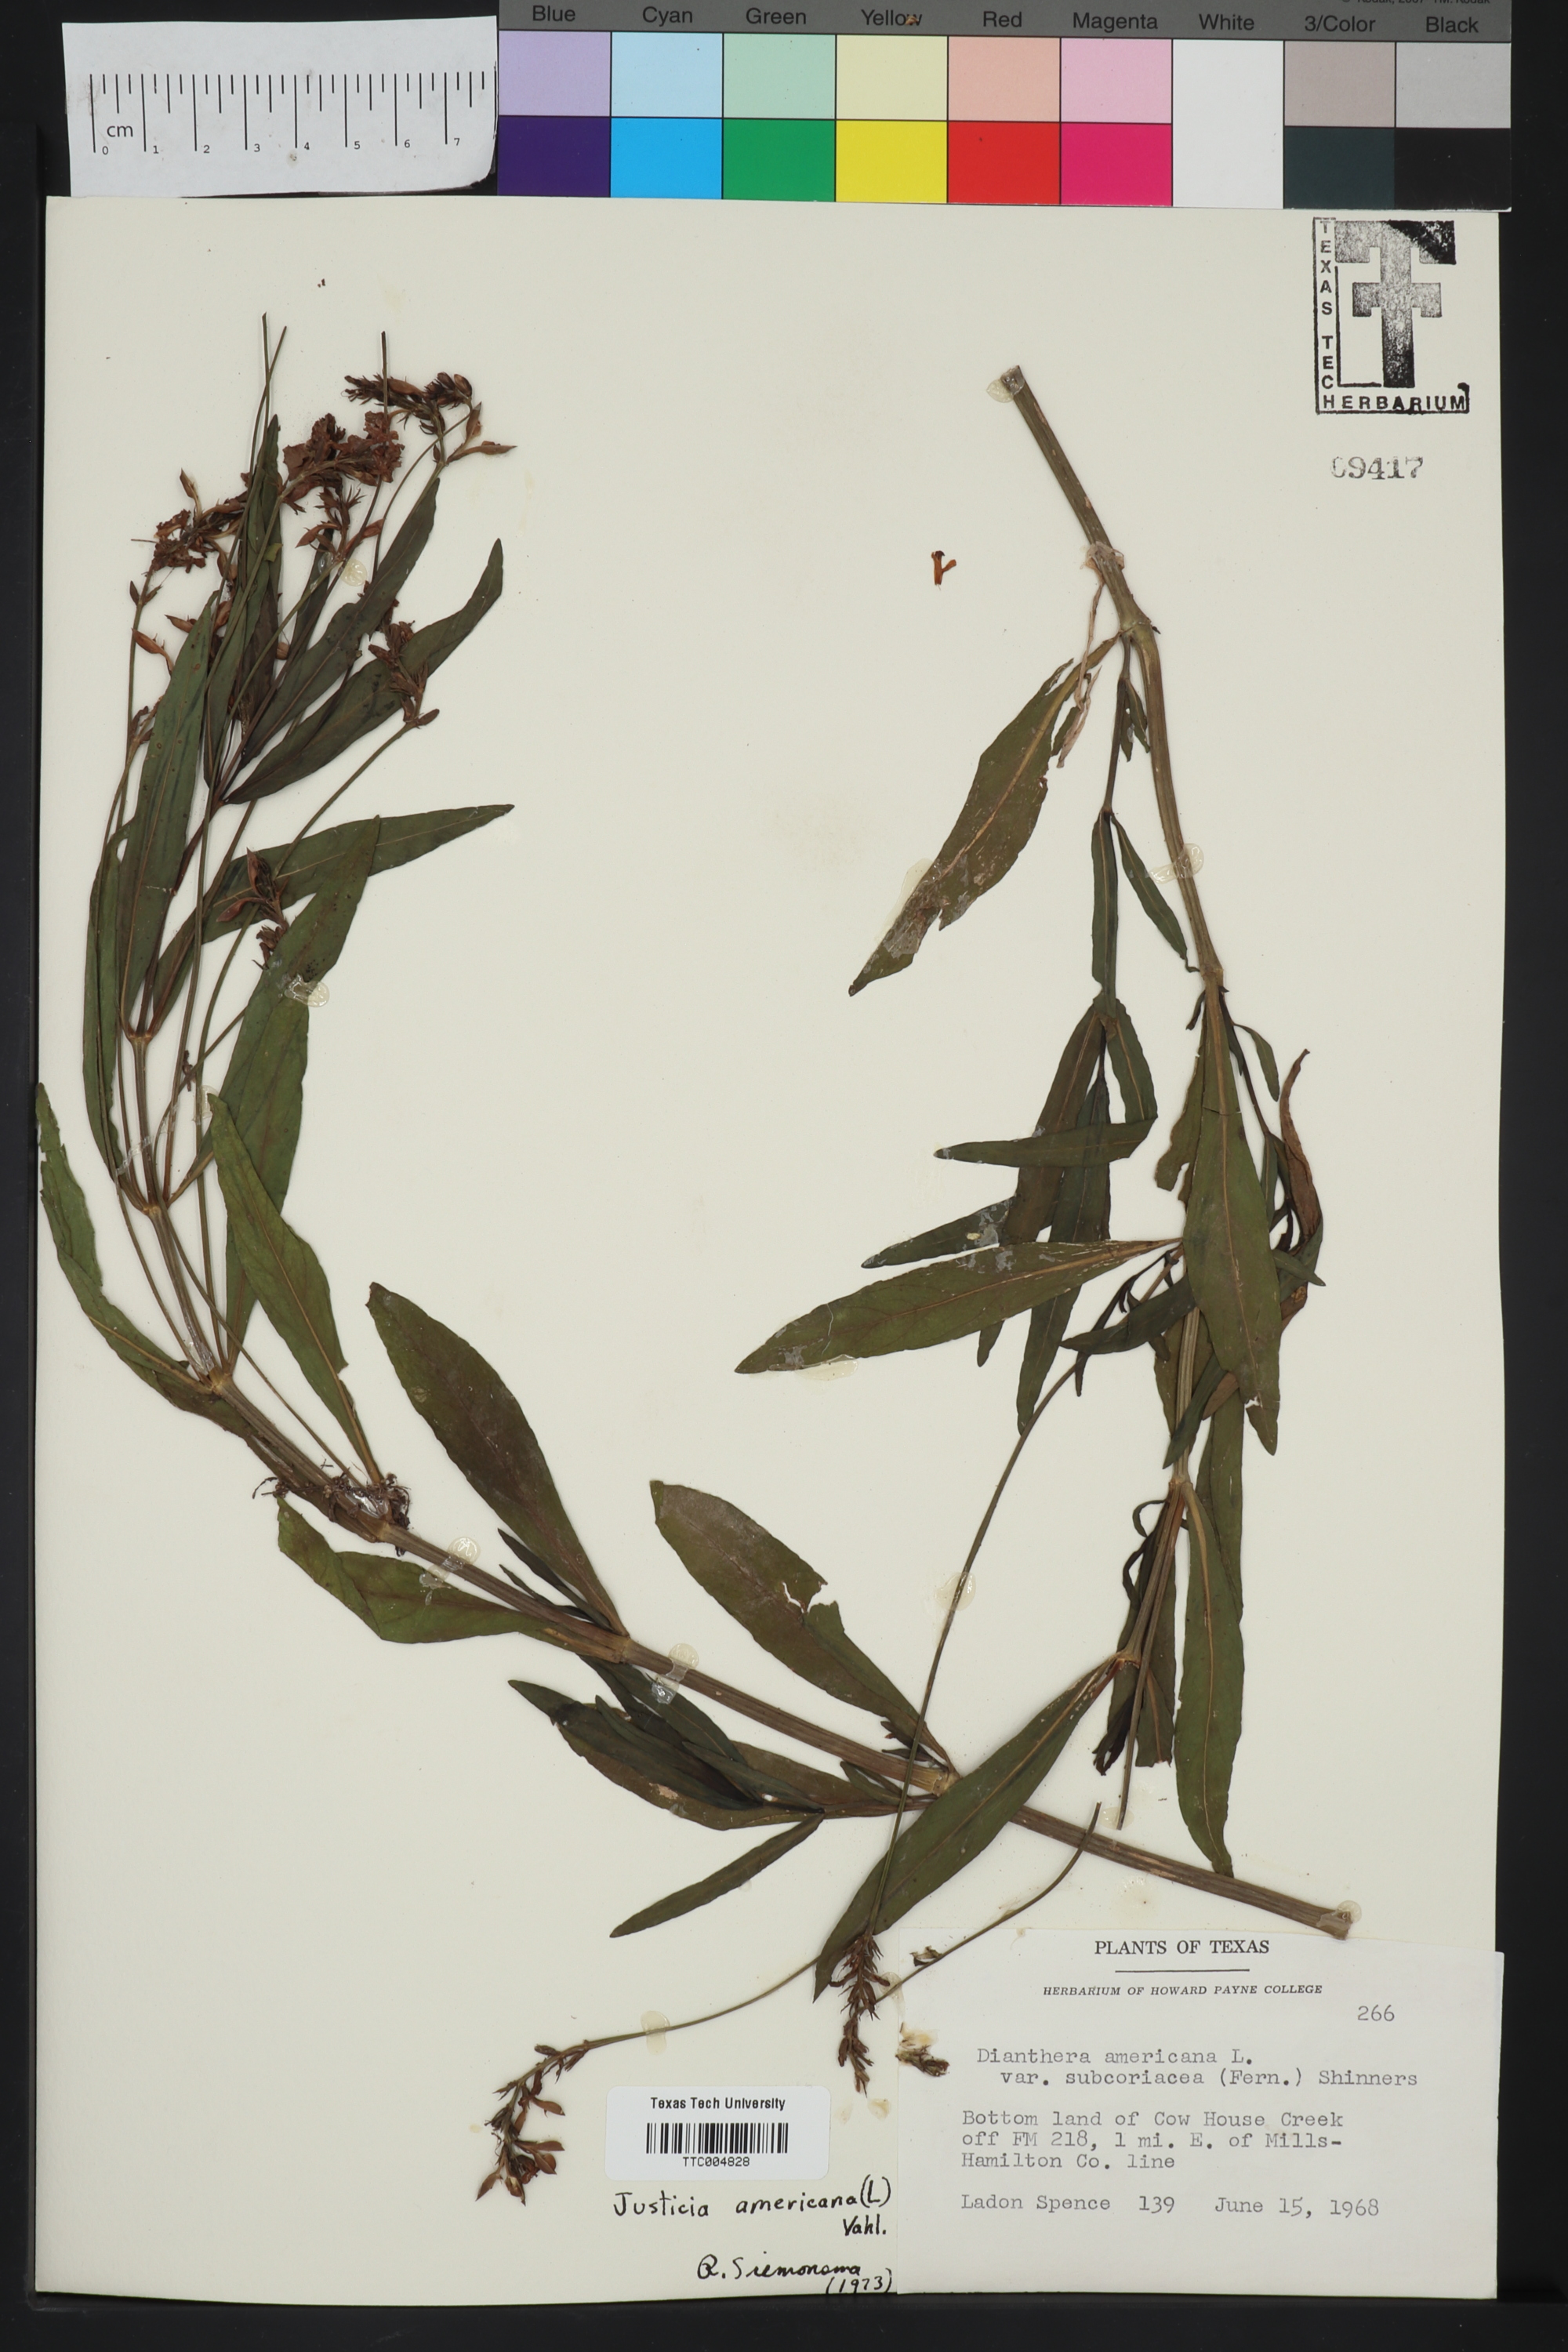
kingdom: Plantae
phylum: Tracheophyta
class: Magnoliopsida
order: Lamiales
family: Acanthaceae
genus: Dianthera
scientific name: Dianthera americana
